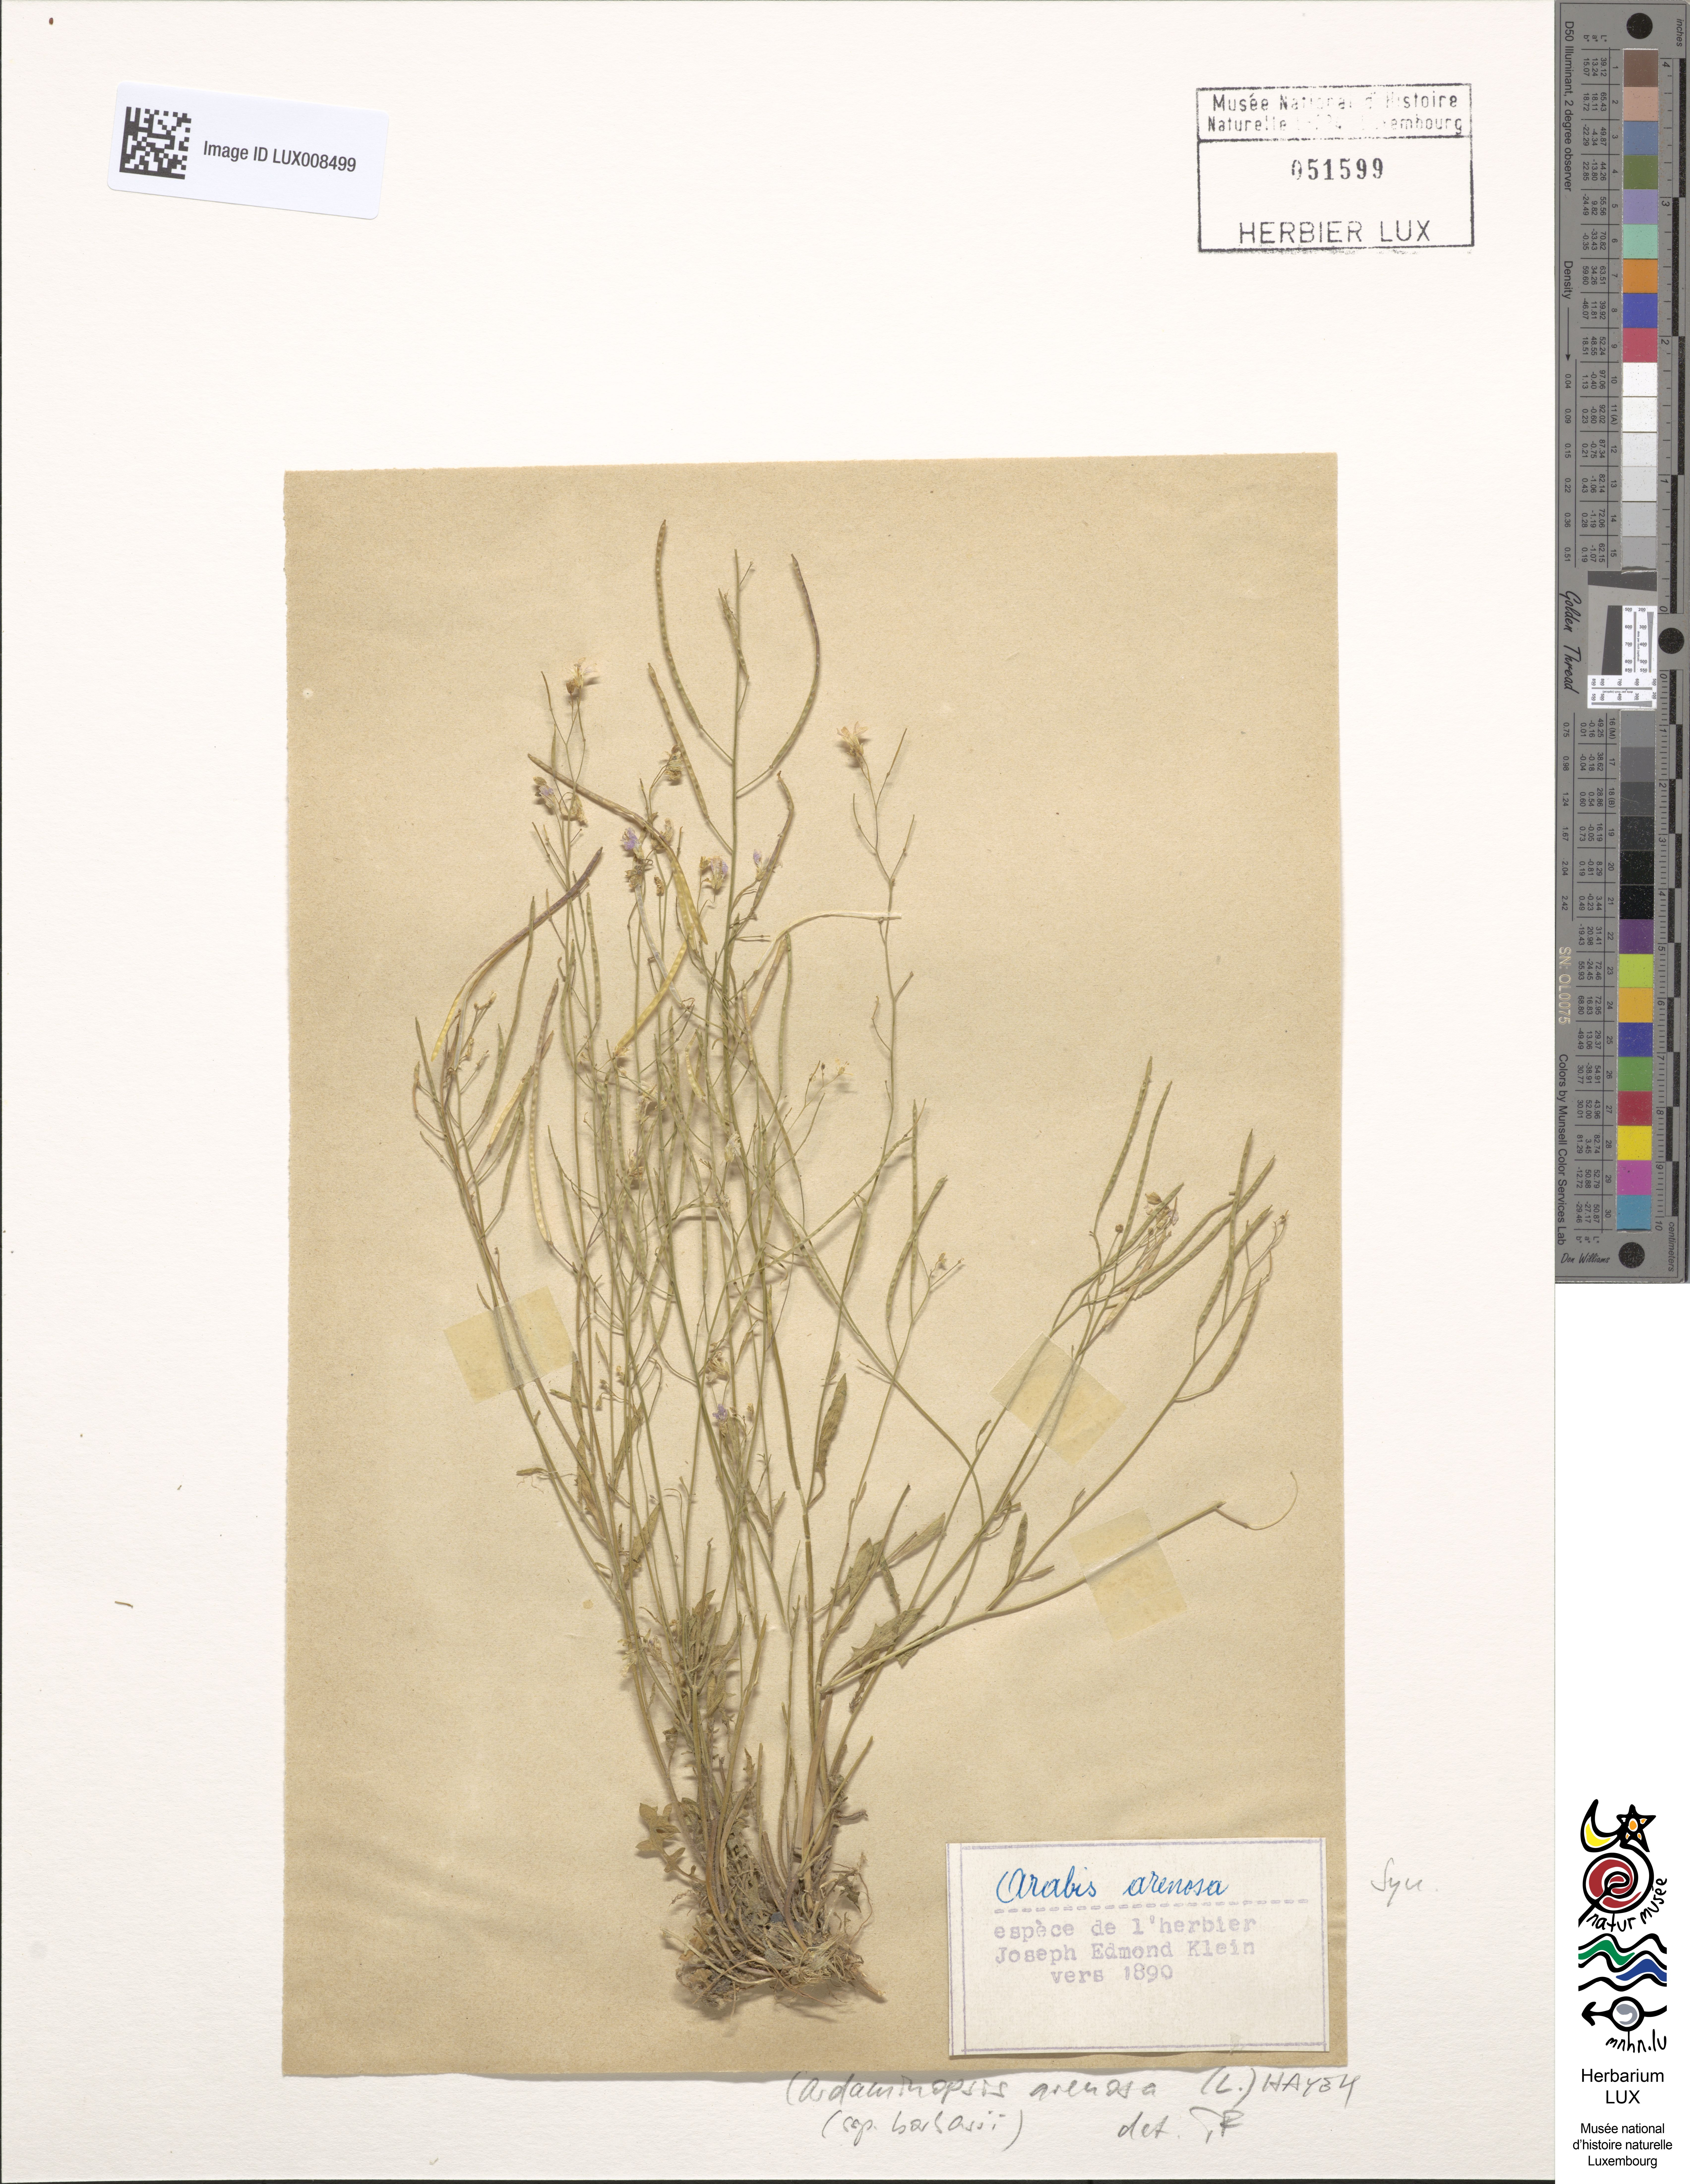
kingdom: Plantae
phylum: Tracheophyta
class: Magnoliopsida
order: Brassicales
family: Brassicaceae
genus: Arabidopsis
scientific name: Arabidopsis arenosa
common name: Sand rock-cress
